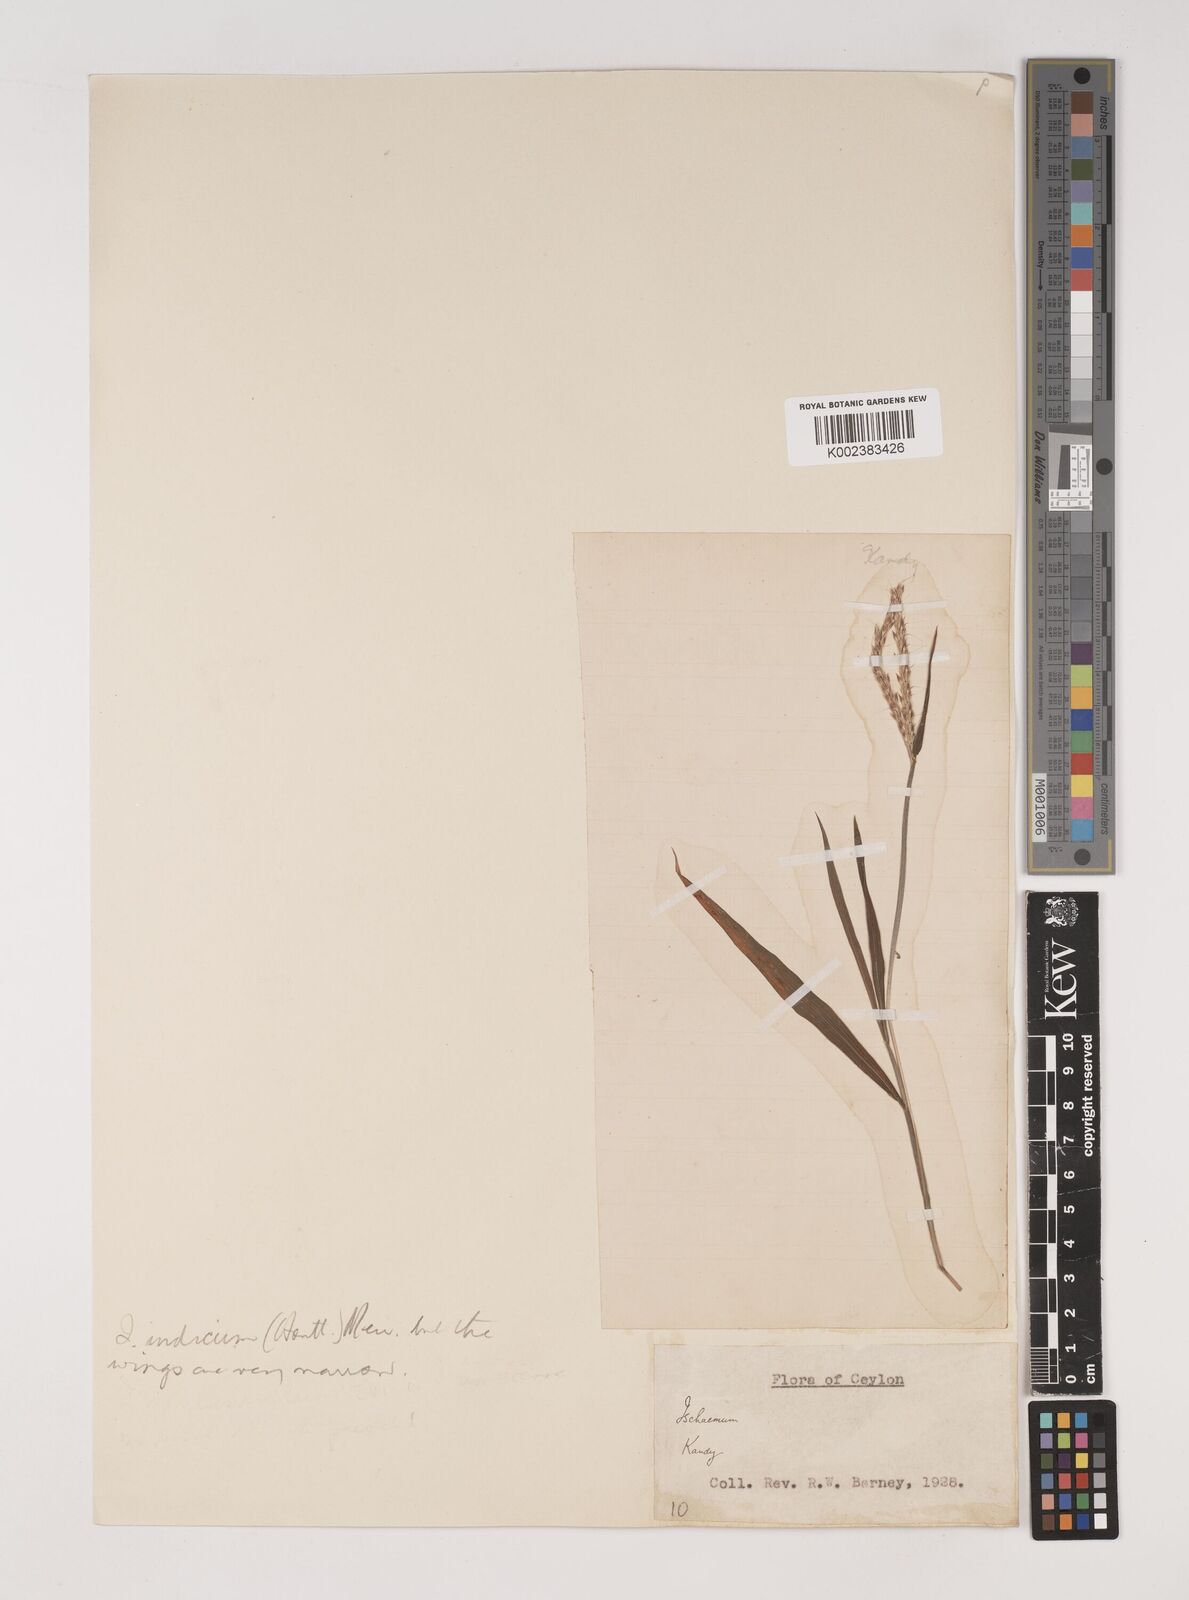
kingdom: Plantae
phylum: Tracheophyta
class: Liliopsida
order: Poales
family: Poaceae
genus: Polytrias
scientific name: Polytrias indica
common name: Indian murainagrass
